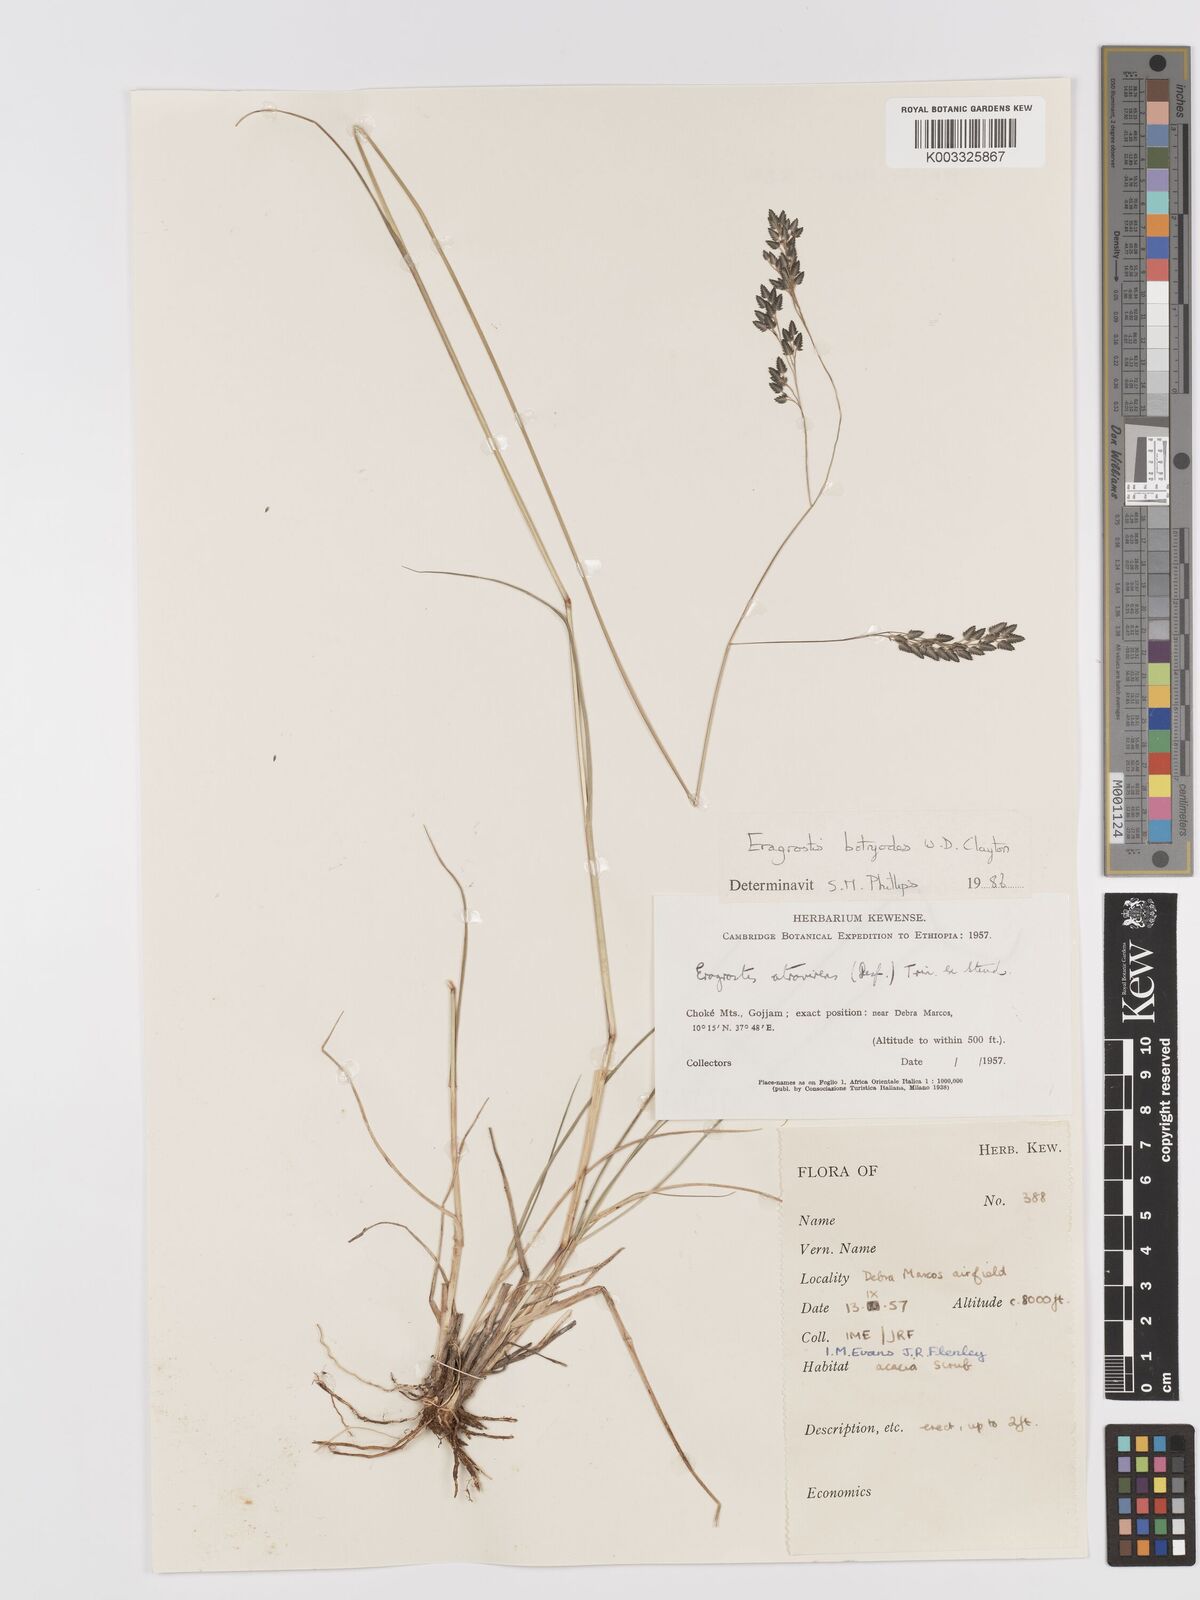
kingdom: Plantae
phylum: Tracheophyta
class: Liliopsida
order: Poales
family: Poaceae
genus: Eragrostis
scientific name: Eragrostis botryodes
